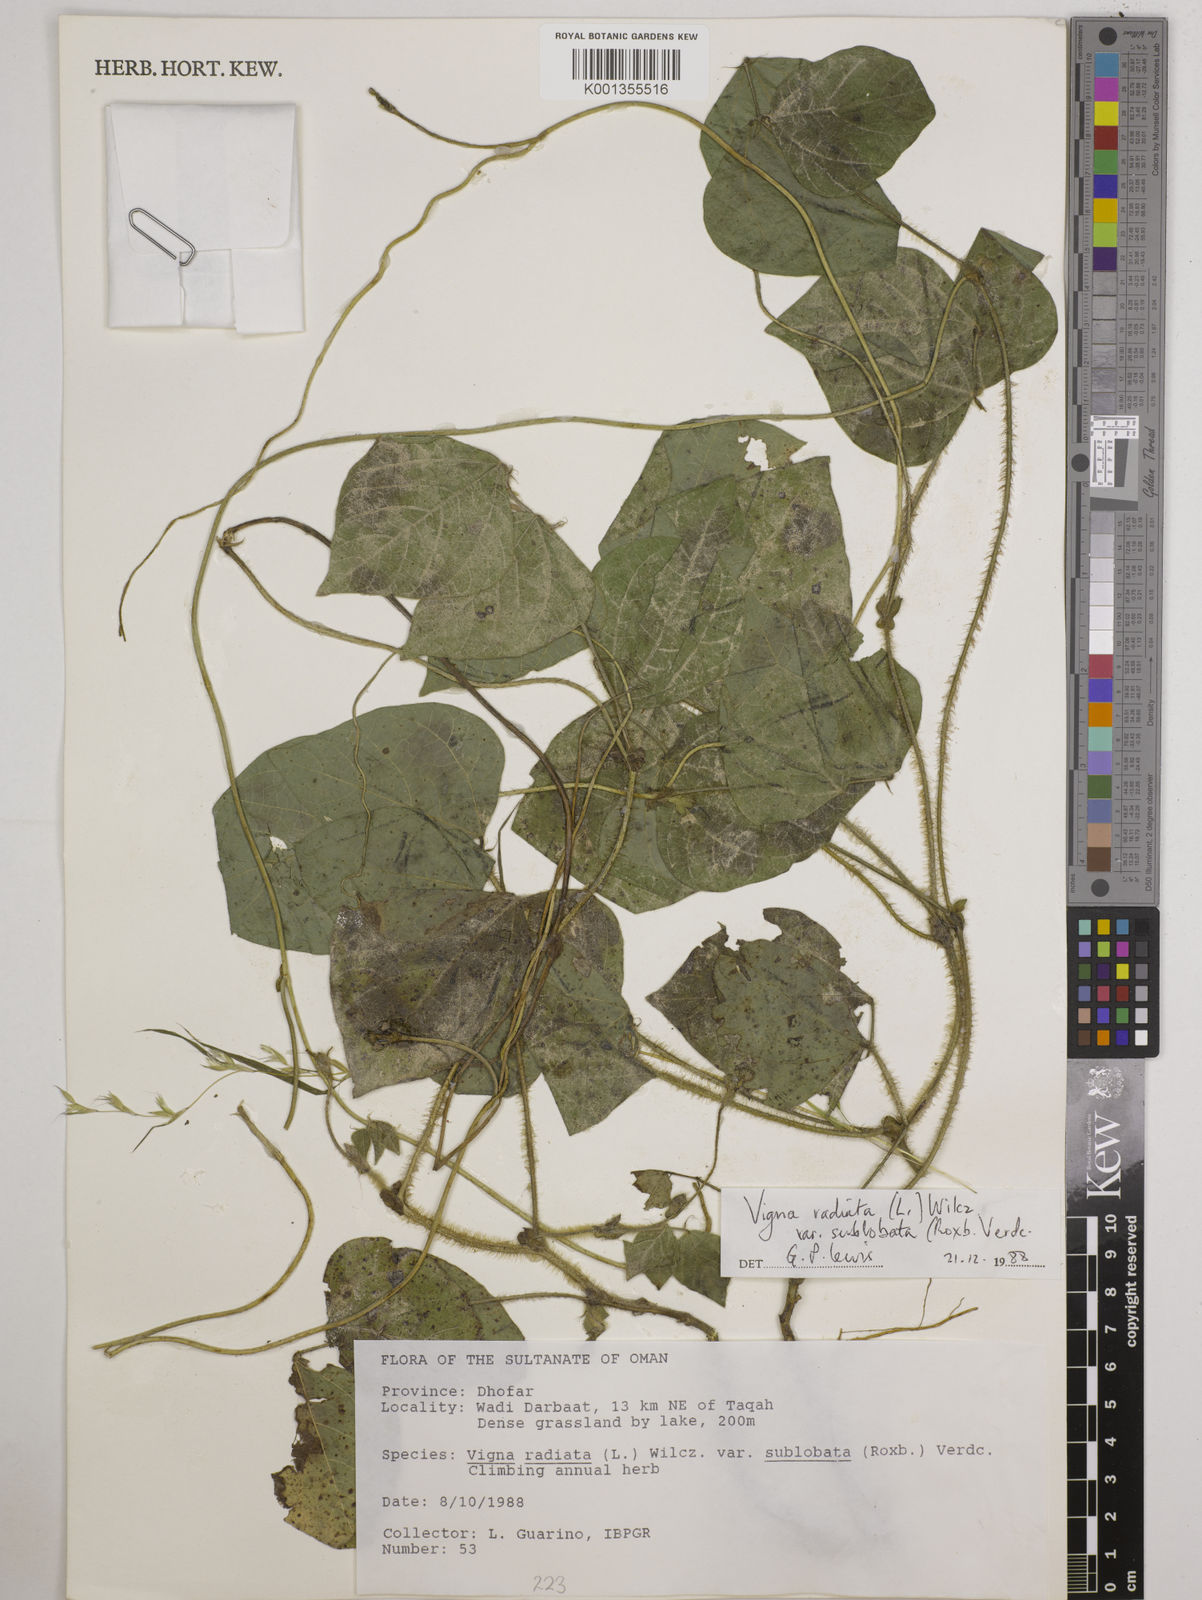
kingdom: Plantae
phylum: Tracheophyta
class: Magnoliopsida
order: Fabales
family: Fabaceae
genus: Vigna
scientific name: Vigna radiata
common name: Mung-bean
